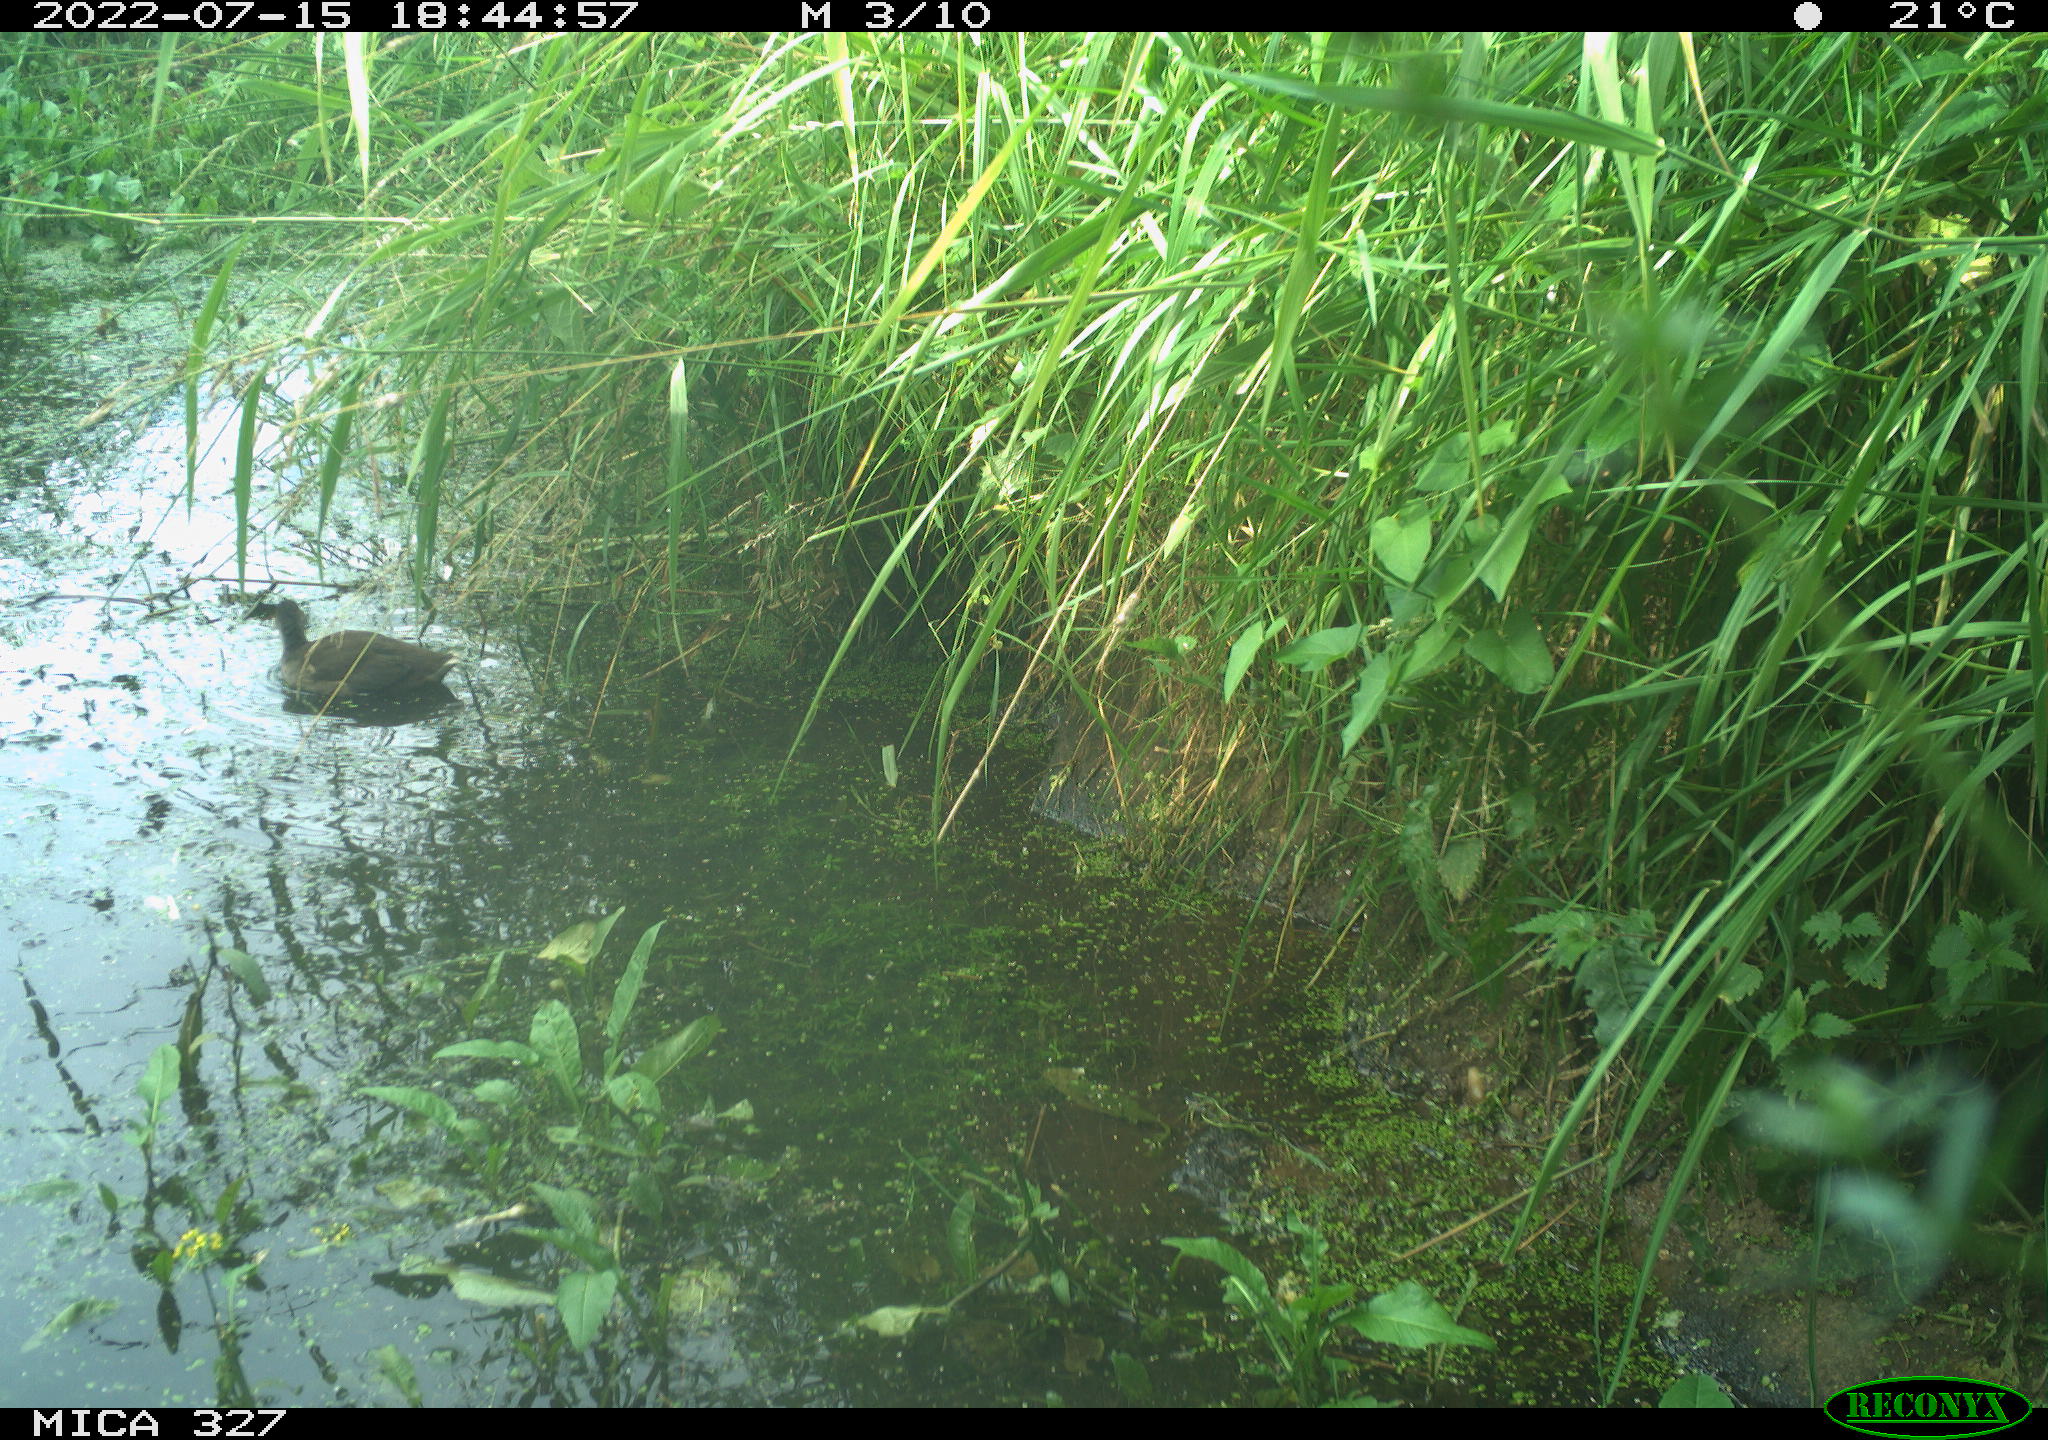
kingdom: Animalia
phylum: Chordata
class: Aves
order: Gruiformes
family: Rallidae
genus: Gallinula
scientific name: Gallinula chloropus
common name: Common moorhen
